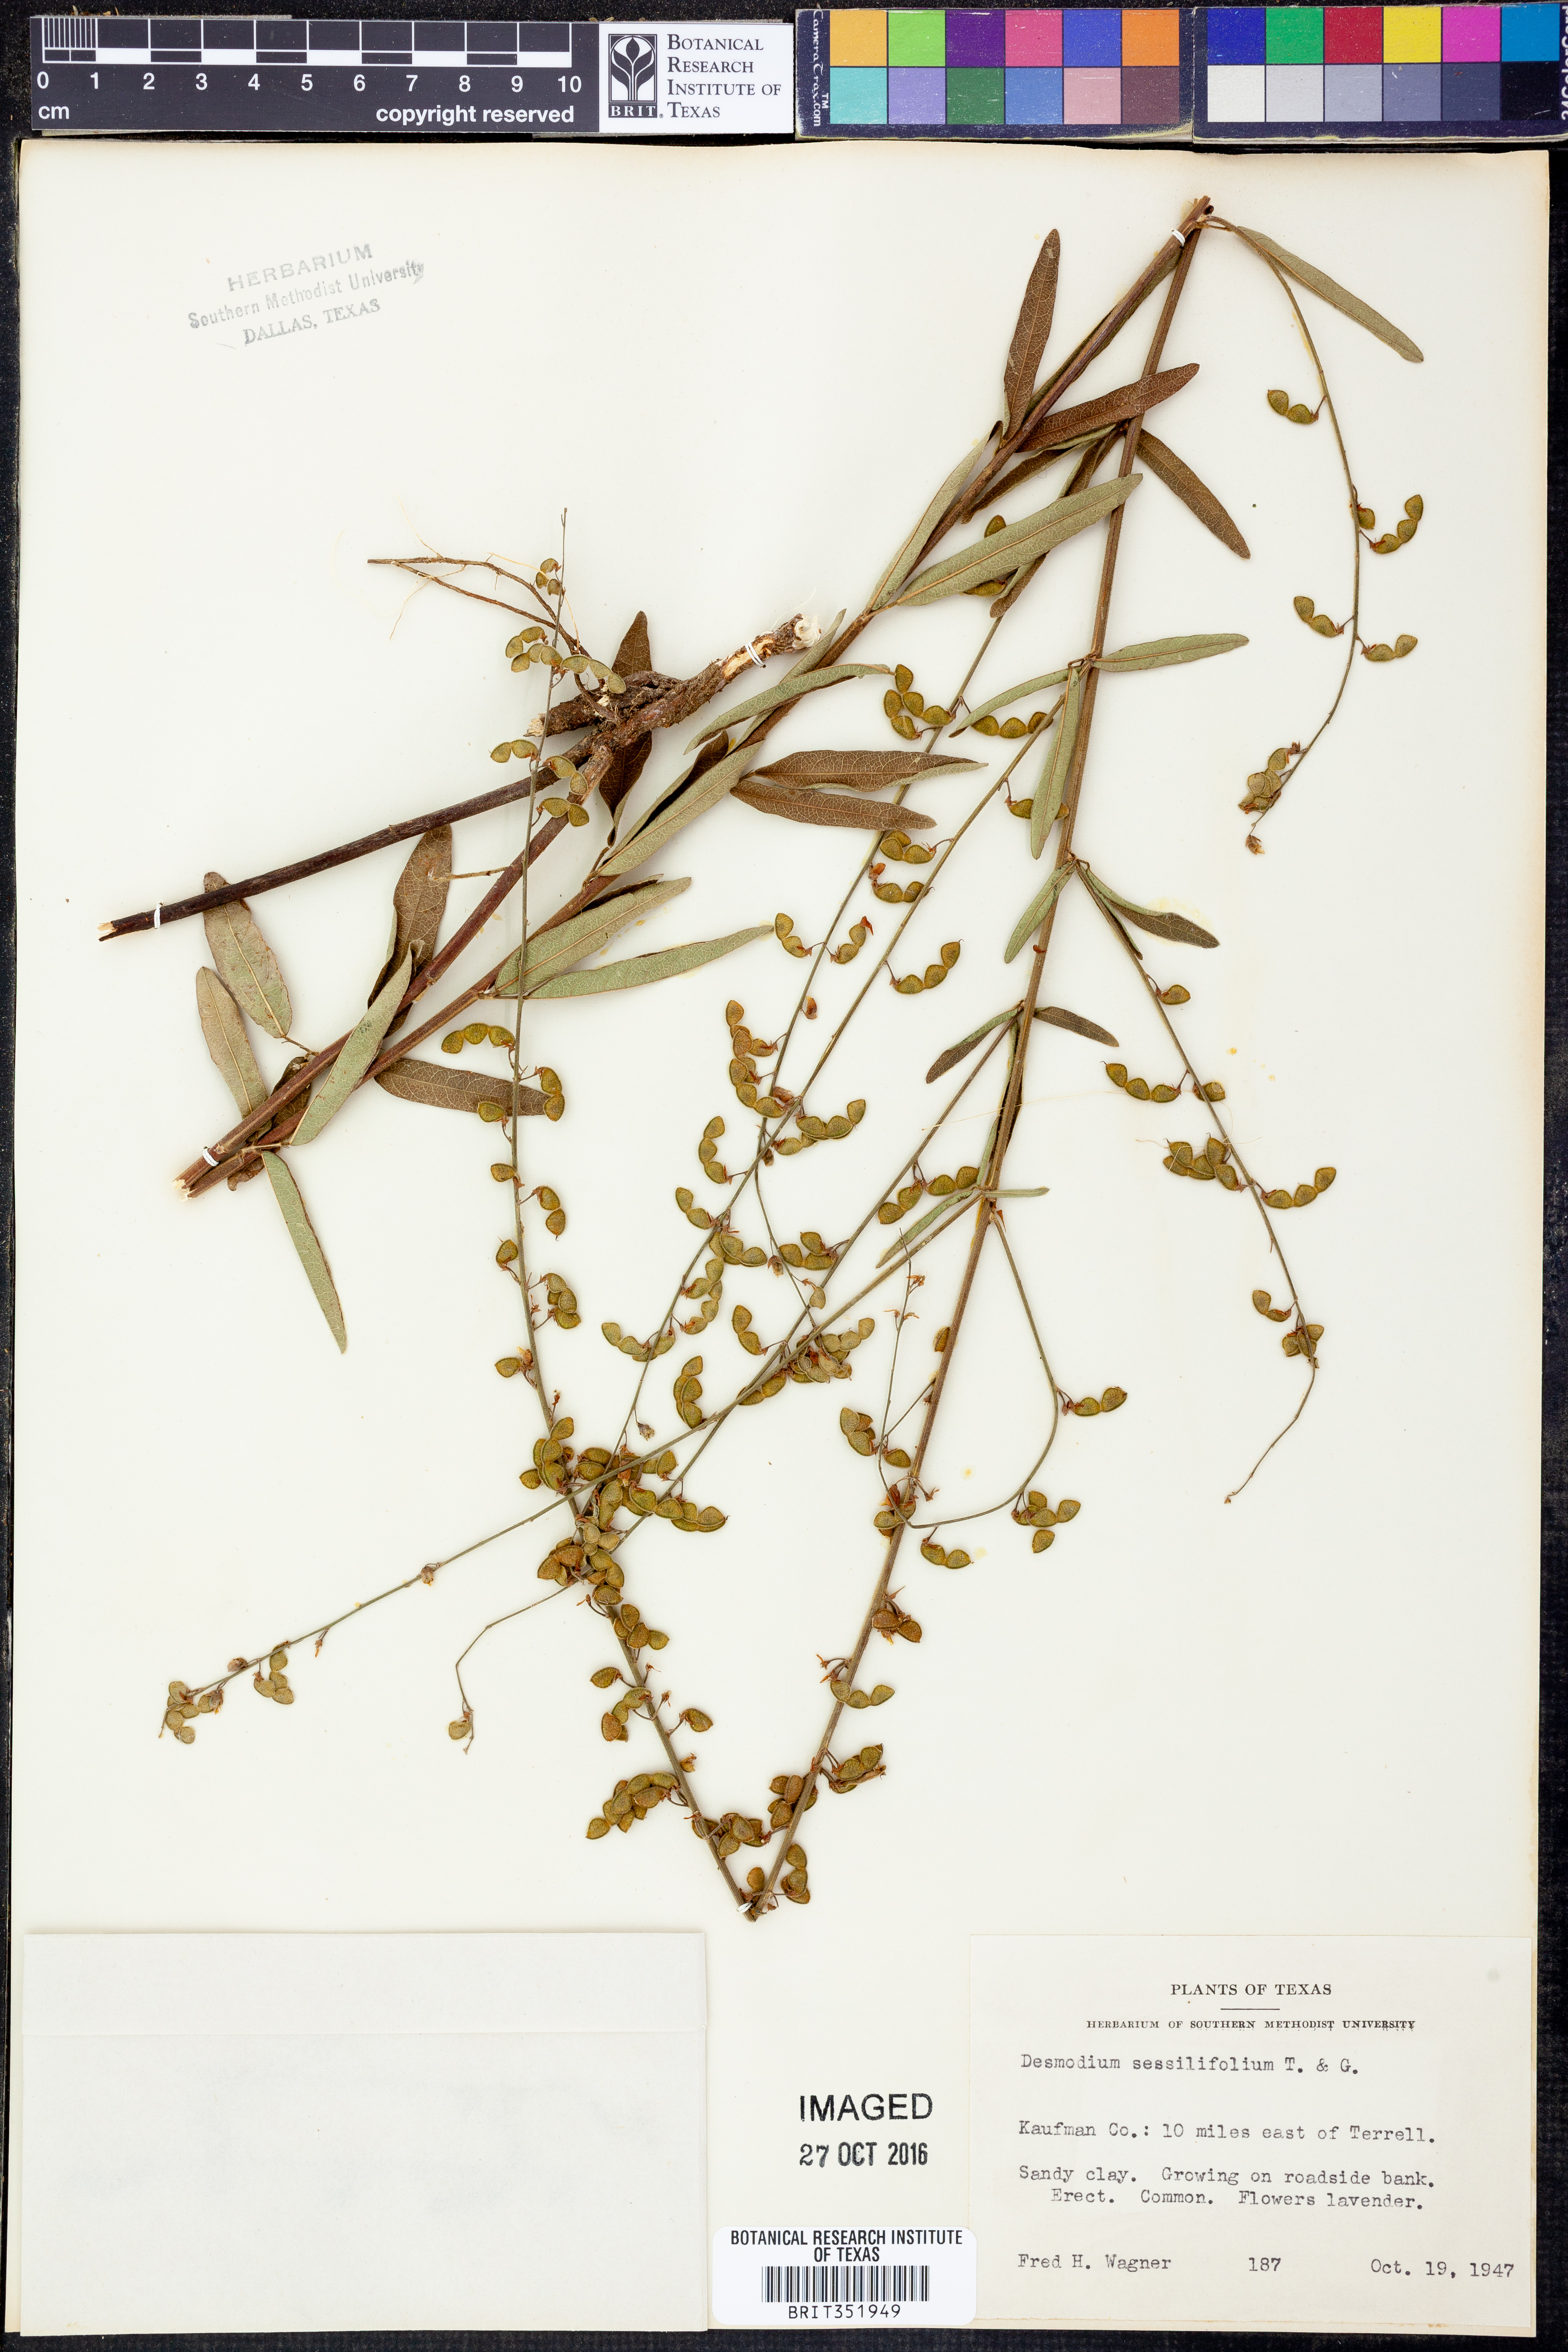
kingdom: Plantae
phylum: Tracheophyta
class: Magnoliopsida
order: Fabales
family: Fabaceae
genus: Desmodium
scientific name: Desmodium sessilifolium
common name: Sessile tick-clover
